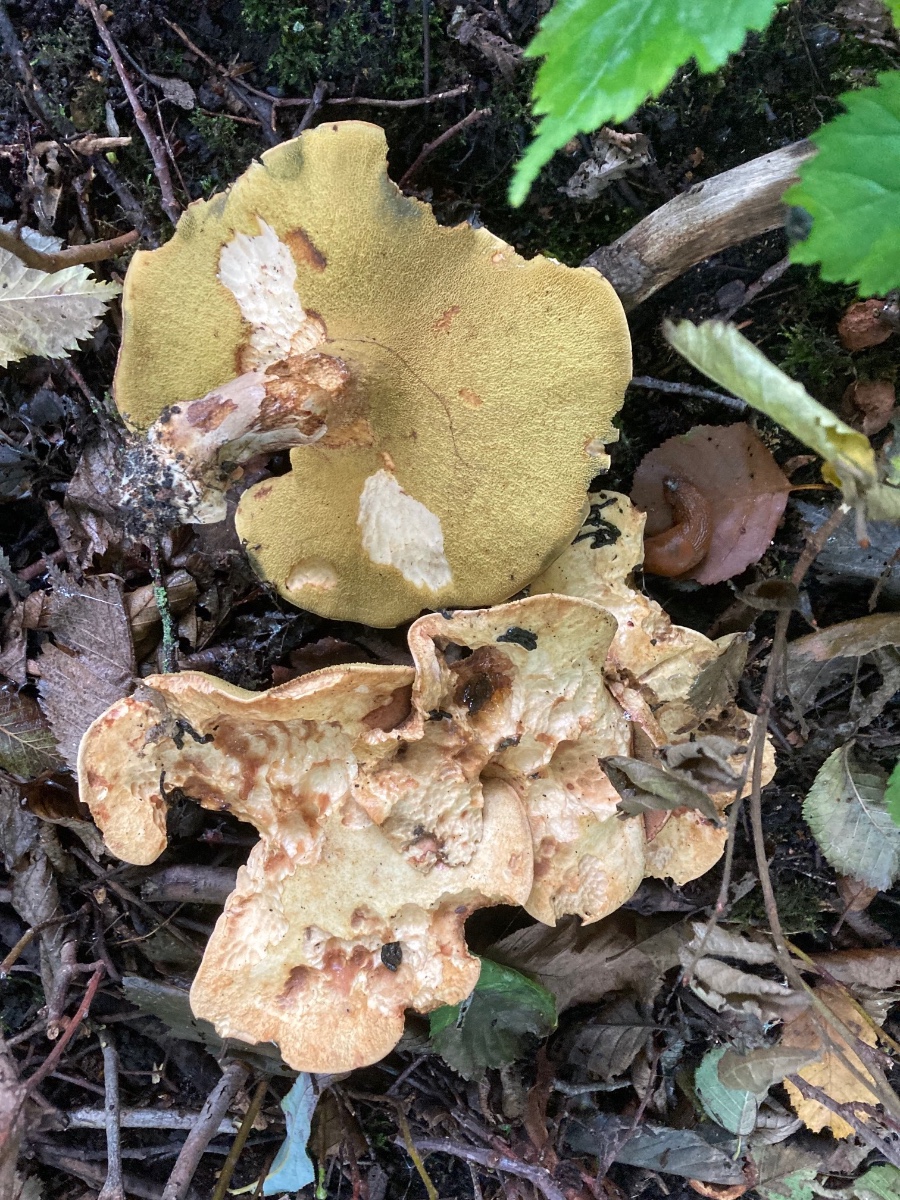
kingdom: Fungi
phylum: Basidiomycota
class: Agaricomycetes
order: Boletales
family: Paxillaceae
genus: Gyrodon
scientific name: Gyrodon lividus
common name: ellerørhat
